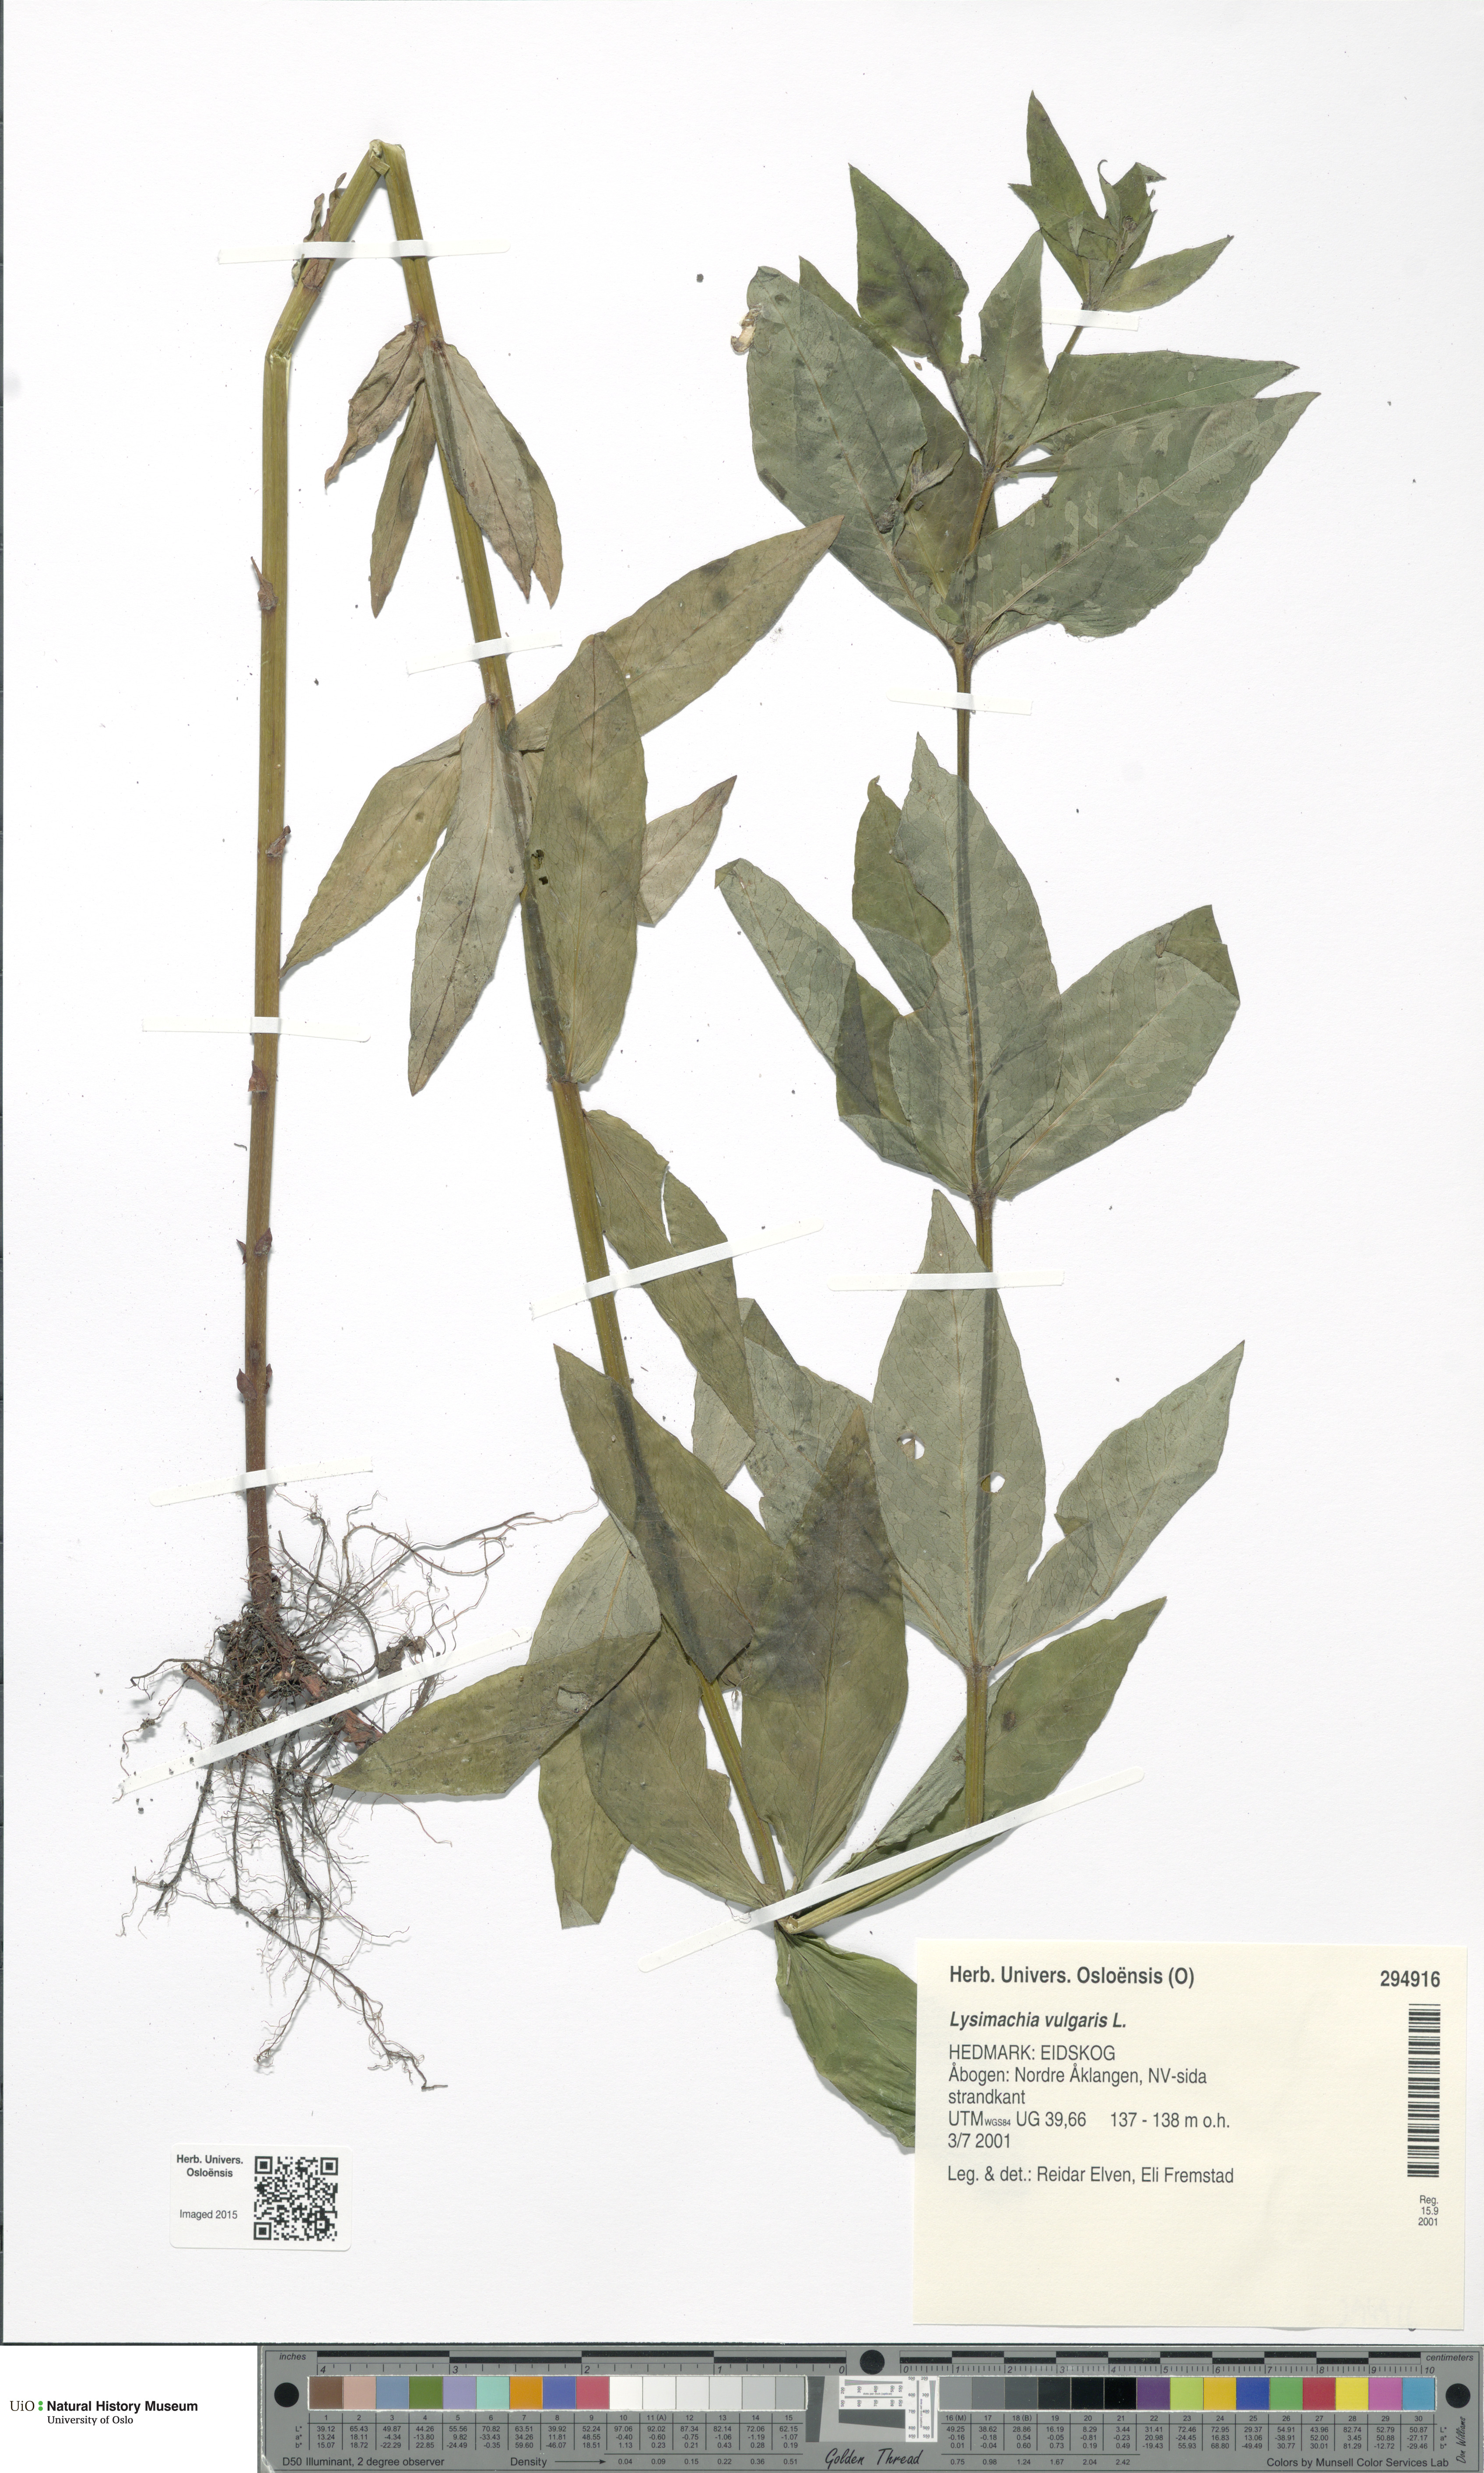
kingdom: Plantae
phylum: Tracheophyta
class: Magnoliopsida
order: Ericales
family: Primulaceae
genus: Lysimachia
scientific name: Lysimachia vulgaris
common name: Yellow loosestrife
